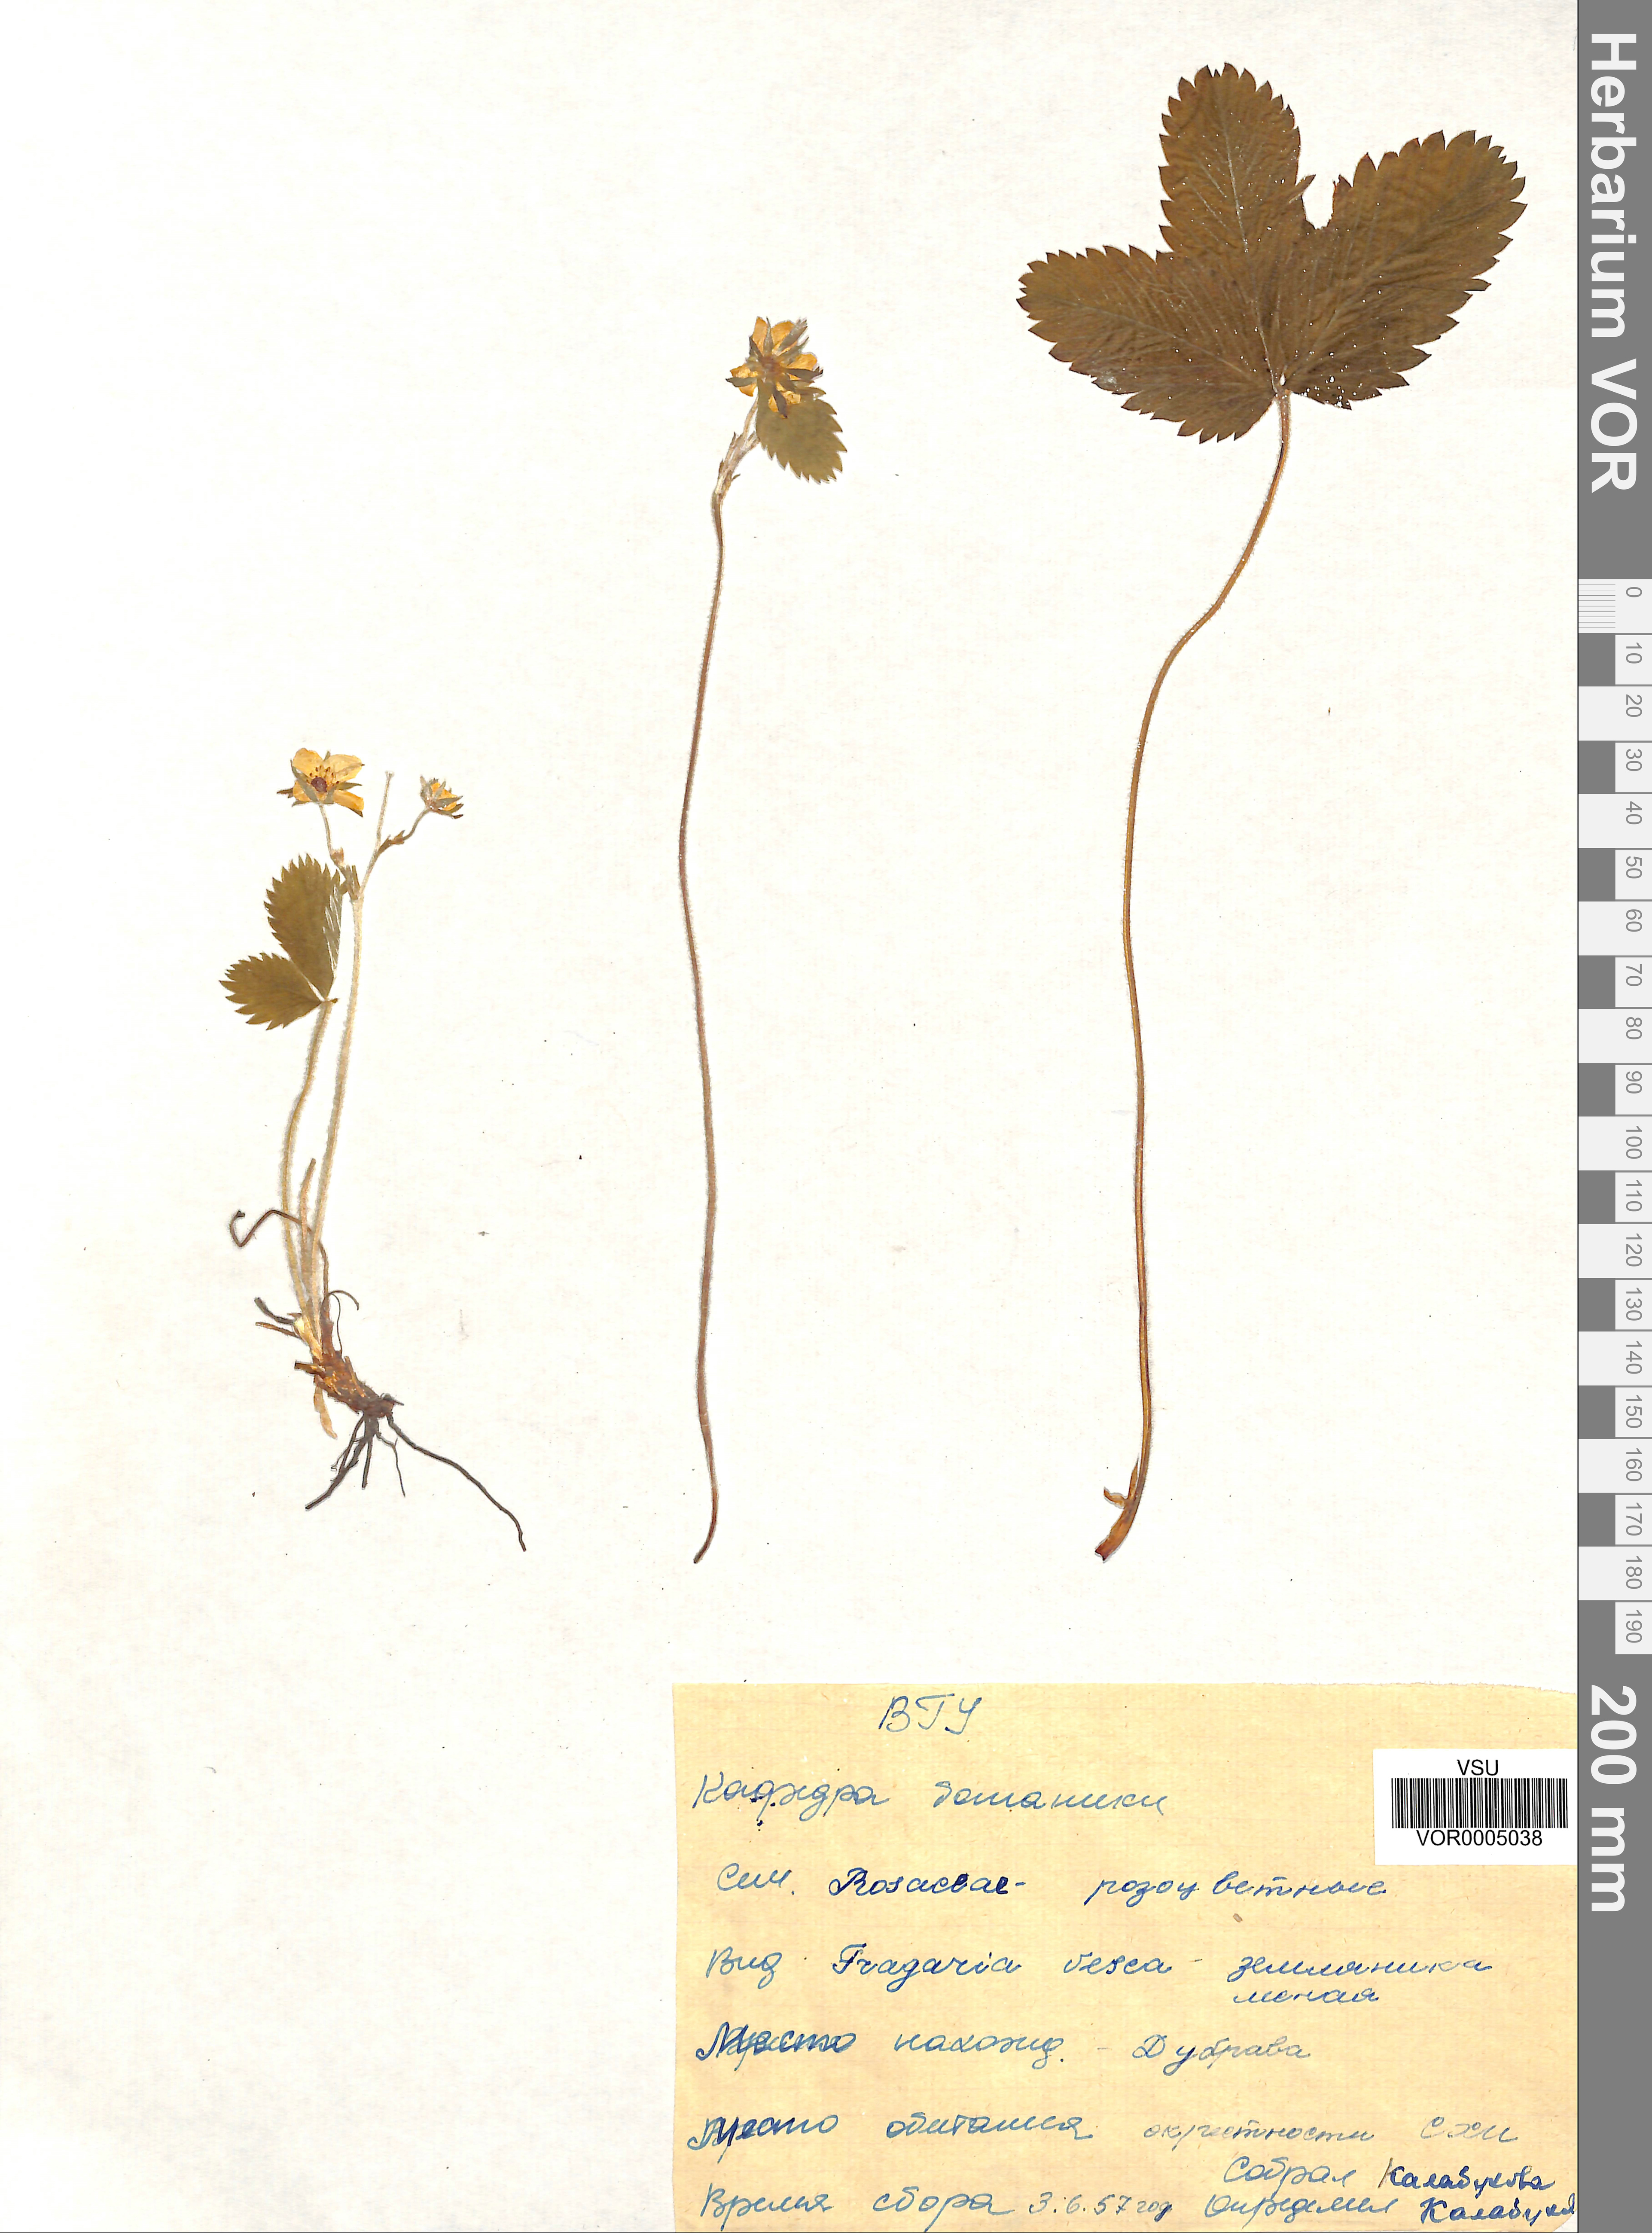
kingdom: Plantae
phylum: Tracheophyta
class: Magnoliopsida
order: Rosales
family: Rosaceae
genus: Fragaria
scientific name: Fragaria vesca
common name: Wild strawberry
